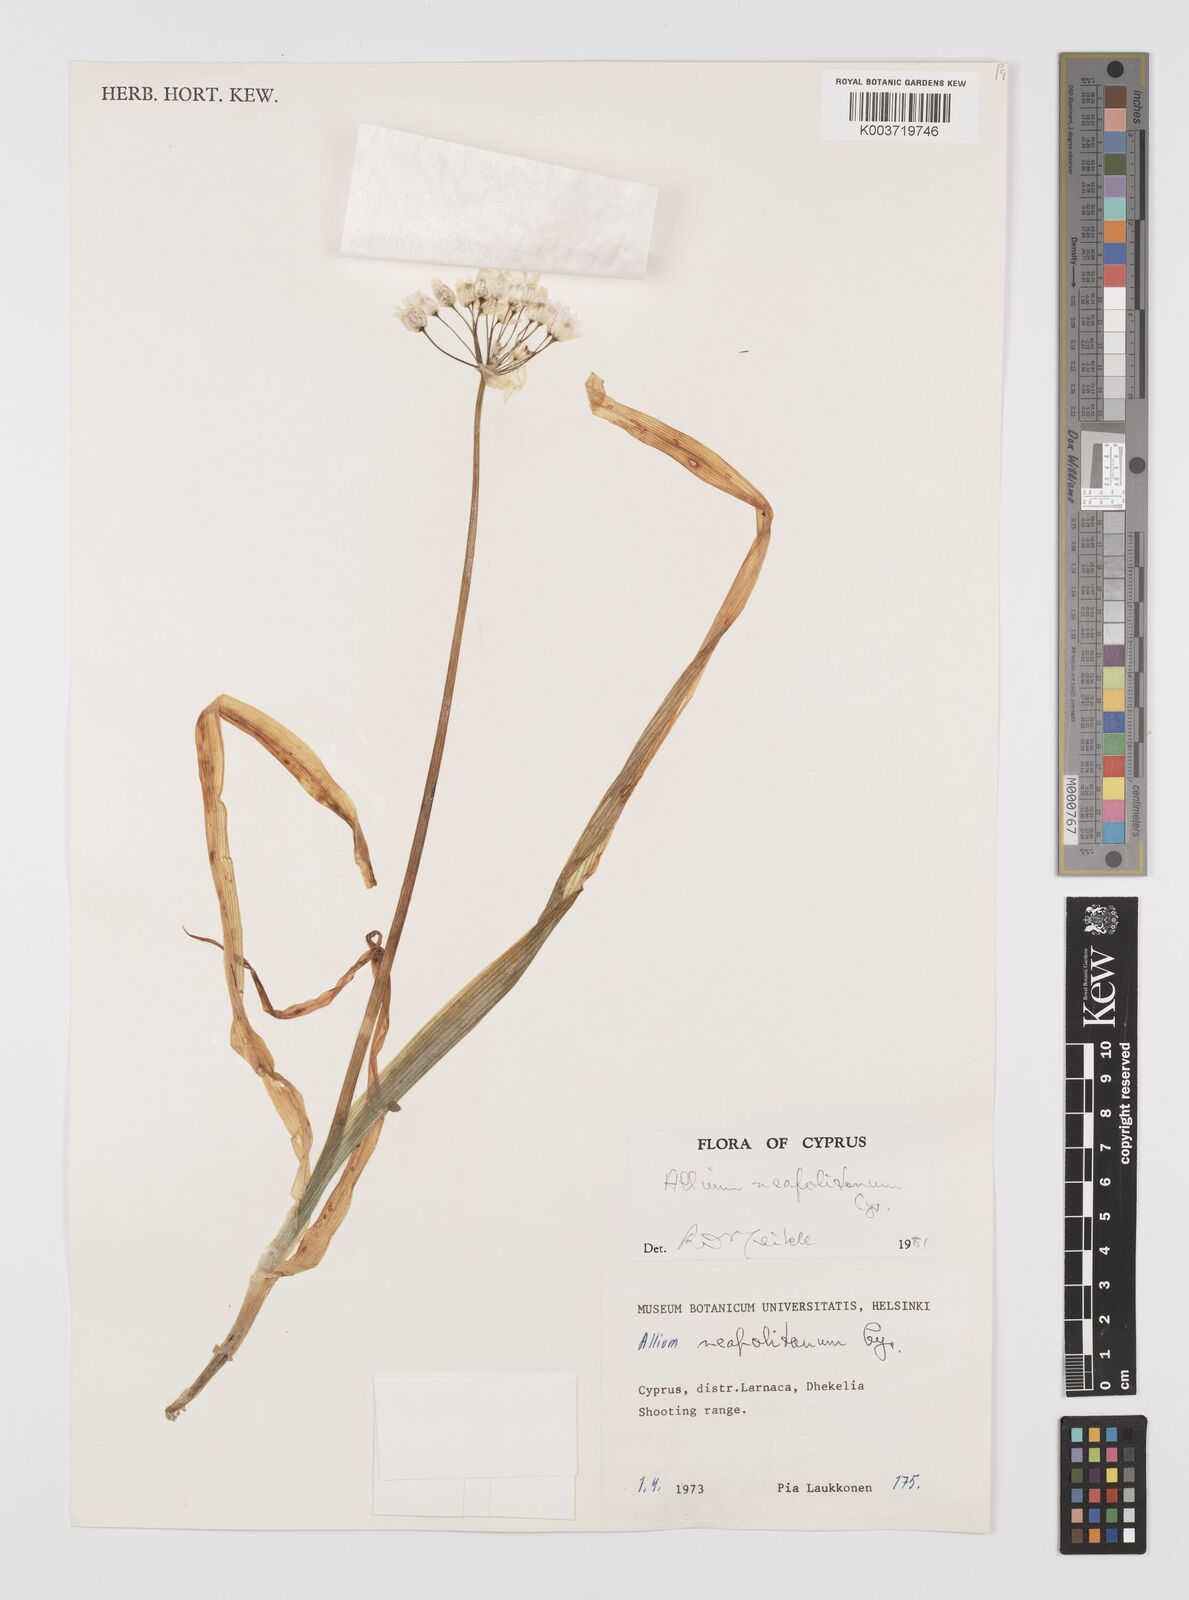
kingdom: Plantae
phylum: Tracheophyta
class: Liliopsida
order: Asparagales
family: Amaryllidaceae
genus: Allium
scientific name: Allium neapolitanum
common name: Neapolitan garlic
